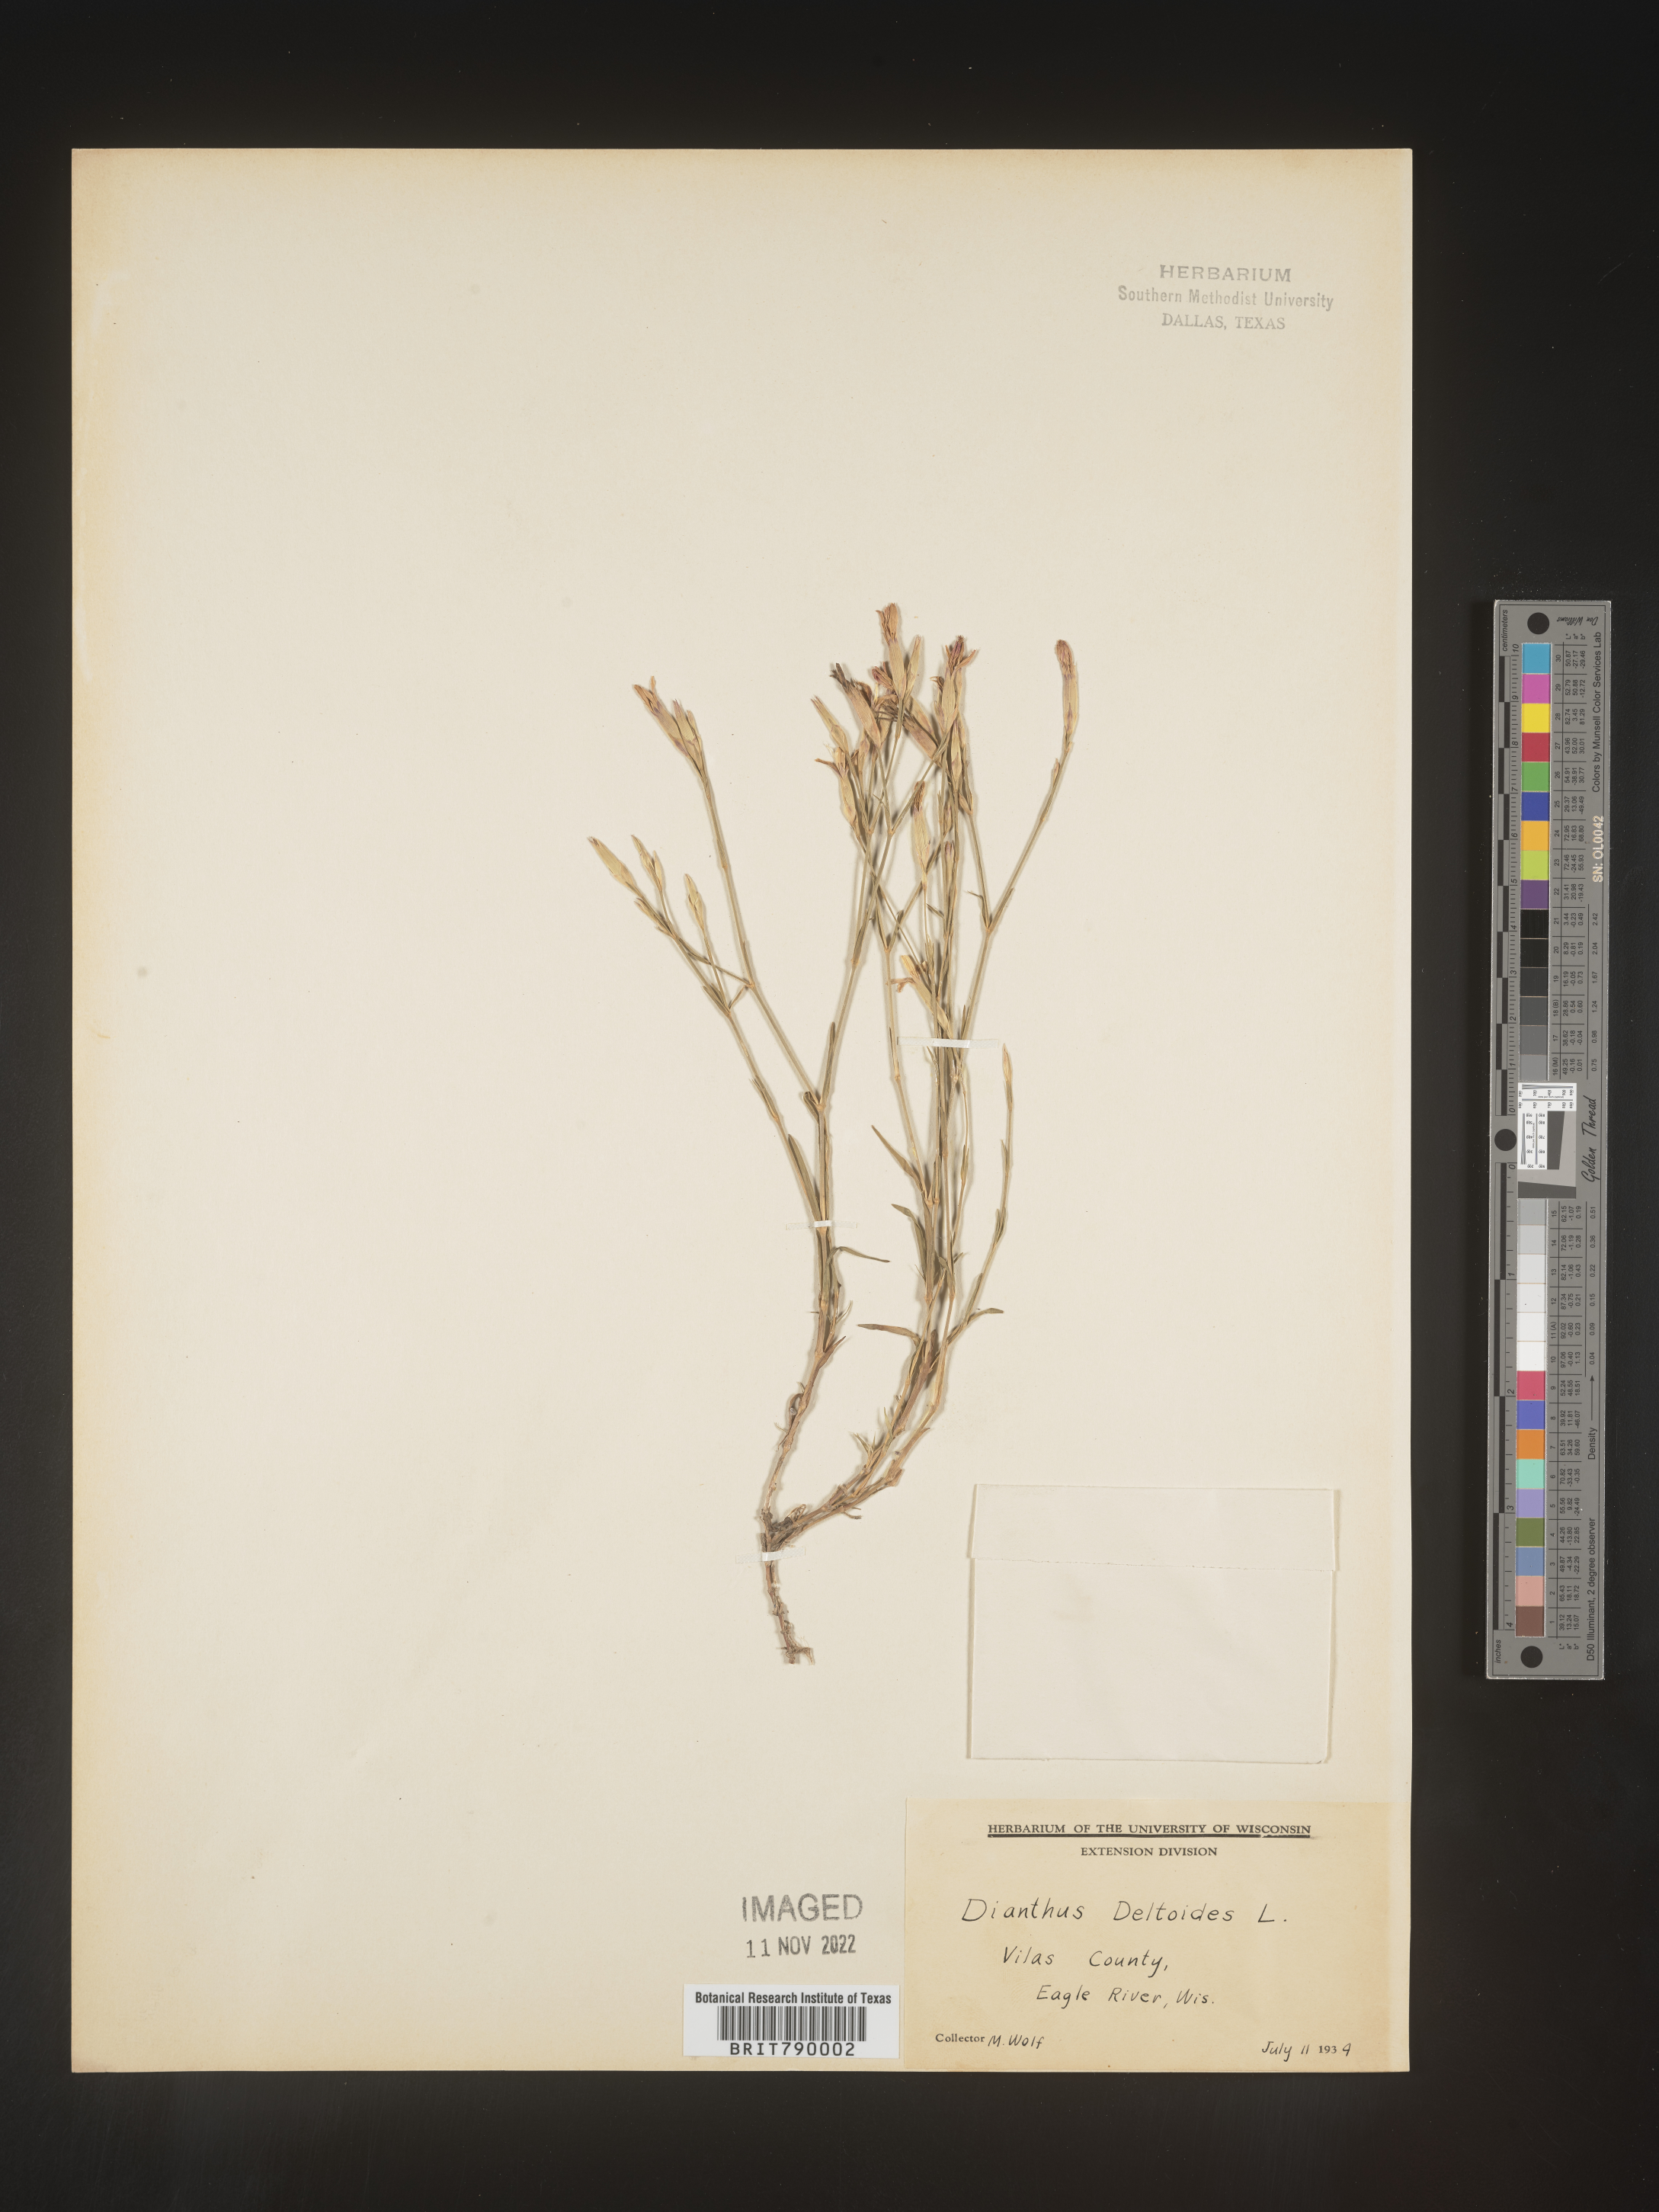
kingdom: Plantae
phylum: Tracheophyta
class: Magnoliopsida
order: Caryophyllales
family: Caryophyllaceae
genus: Dianthus
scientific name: Dianthus deltoides
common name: Maiden pink
